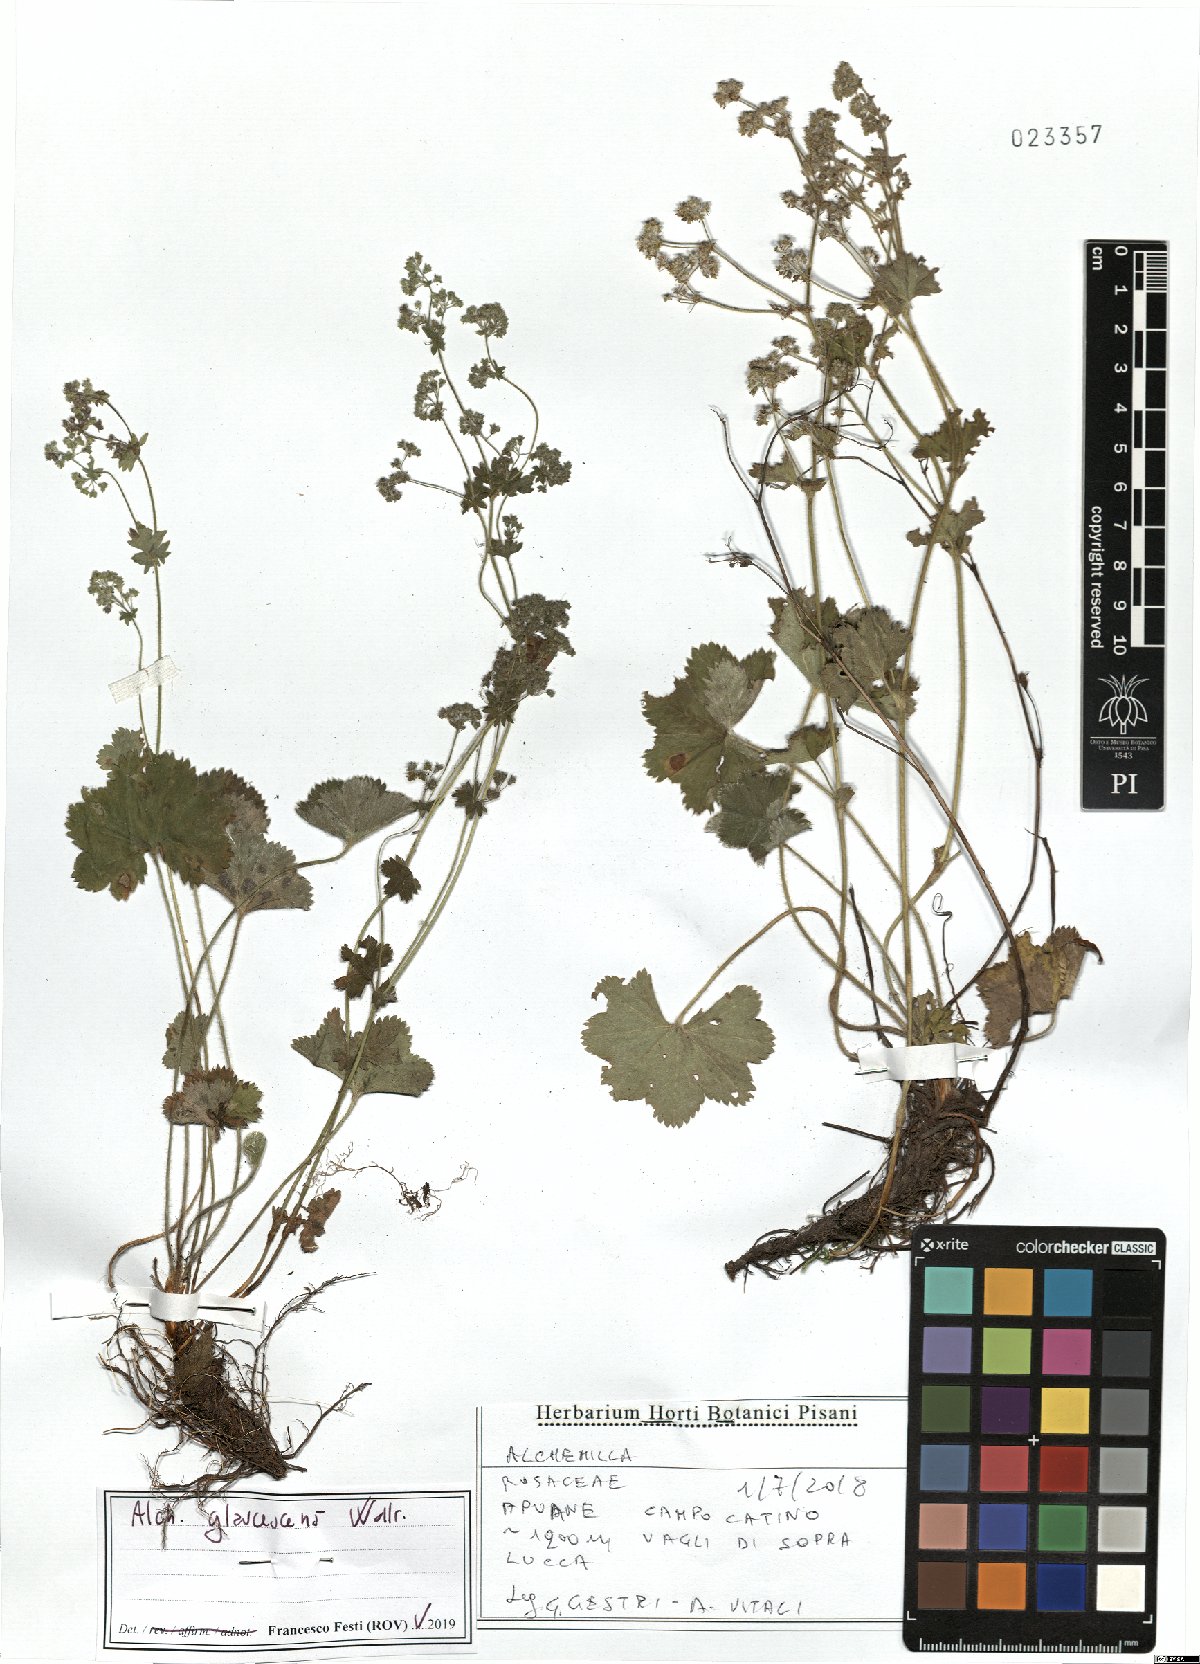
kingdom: Plantae
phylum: Tracheophyta
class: Magnoliopsida
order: Rosales
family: Rosaceae
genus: Alchemilla
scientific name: Alchemilla glaucescens
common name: Silky lady's mantle
